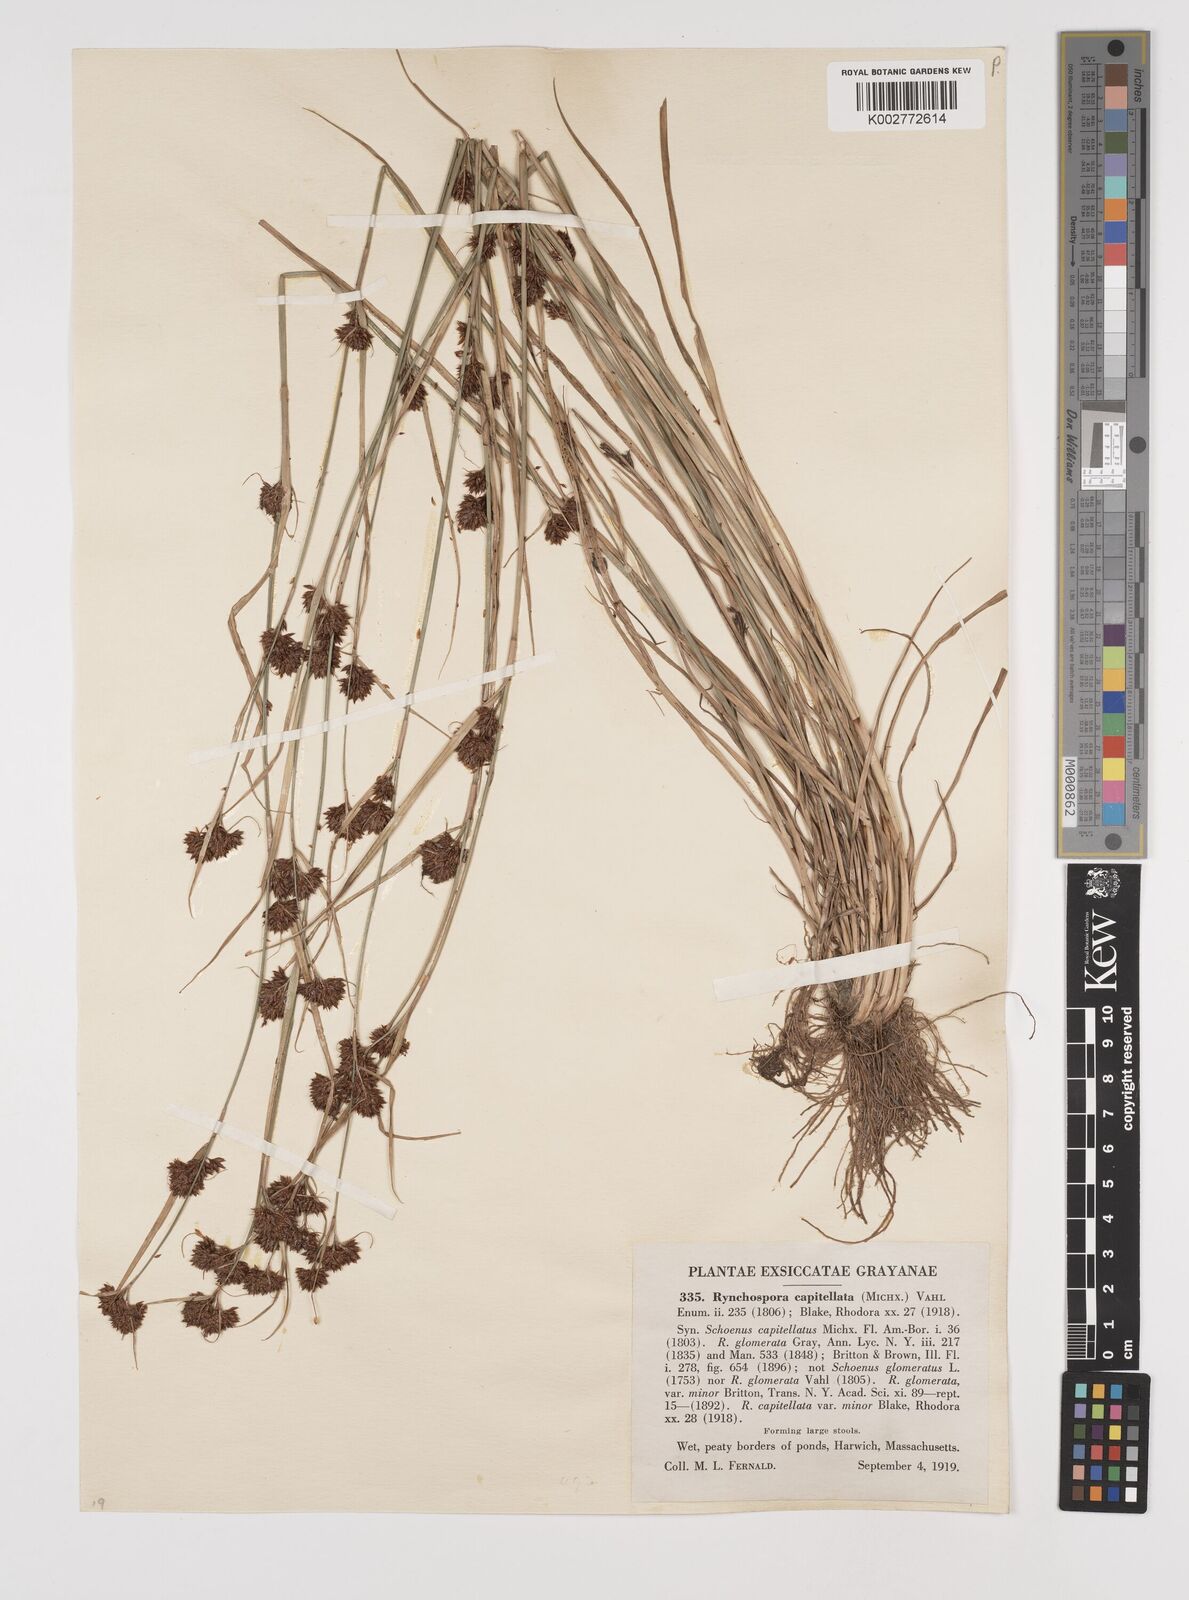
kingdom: Plantae
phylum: Tracheophyta
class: Liliopsida
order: Poales
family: Cyperaceae
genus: Rhynchospora
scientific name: Rhynchospora capitellata
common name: Brownish beaksedge
